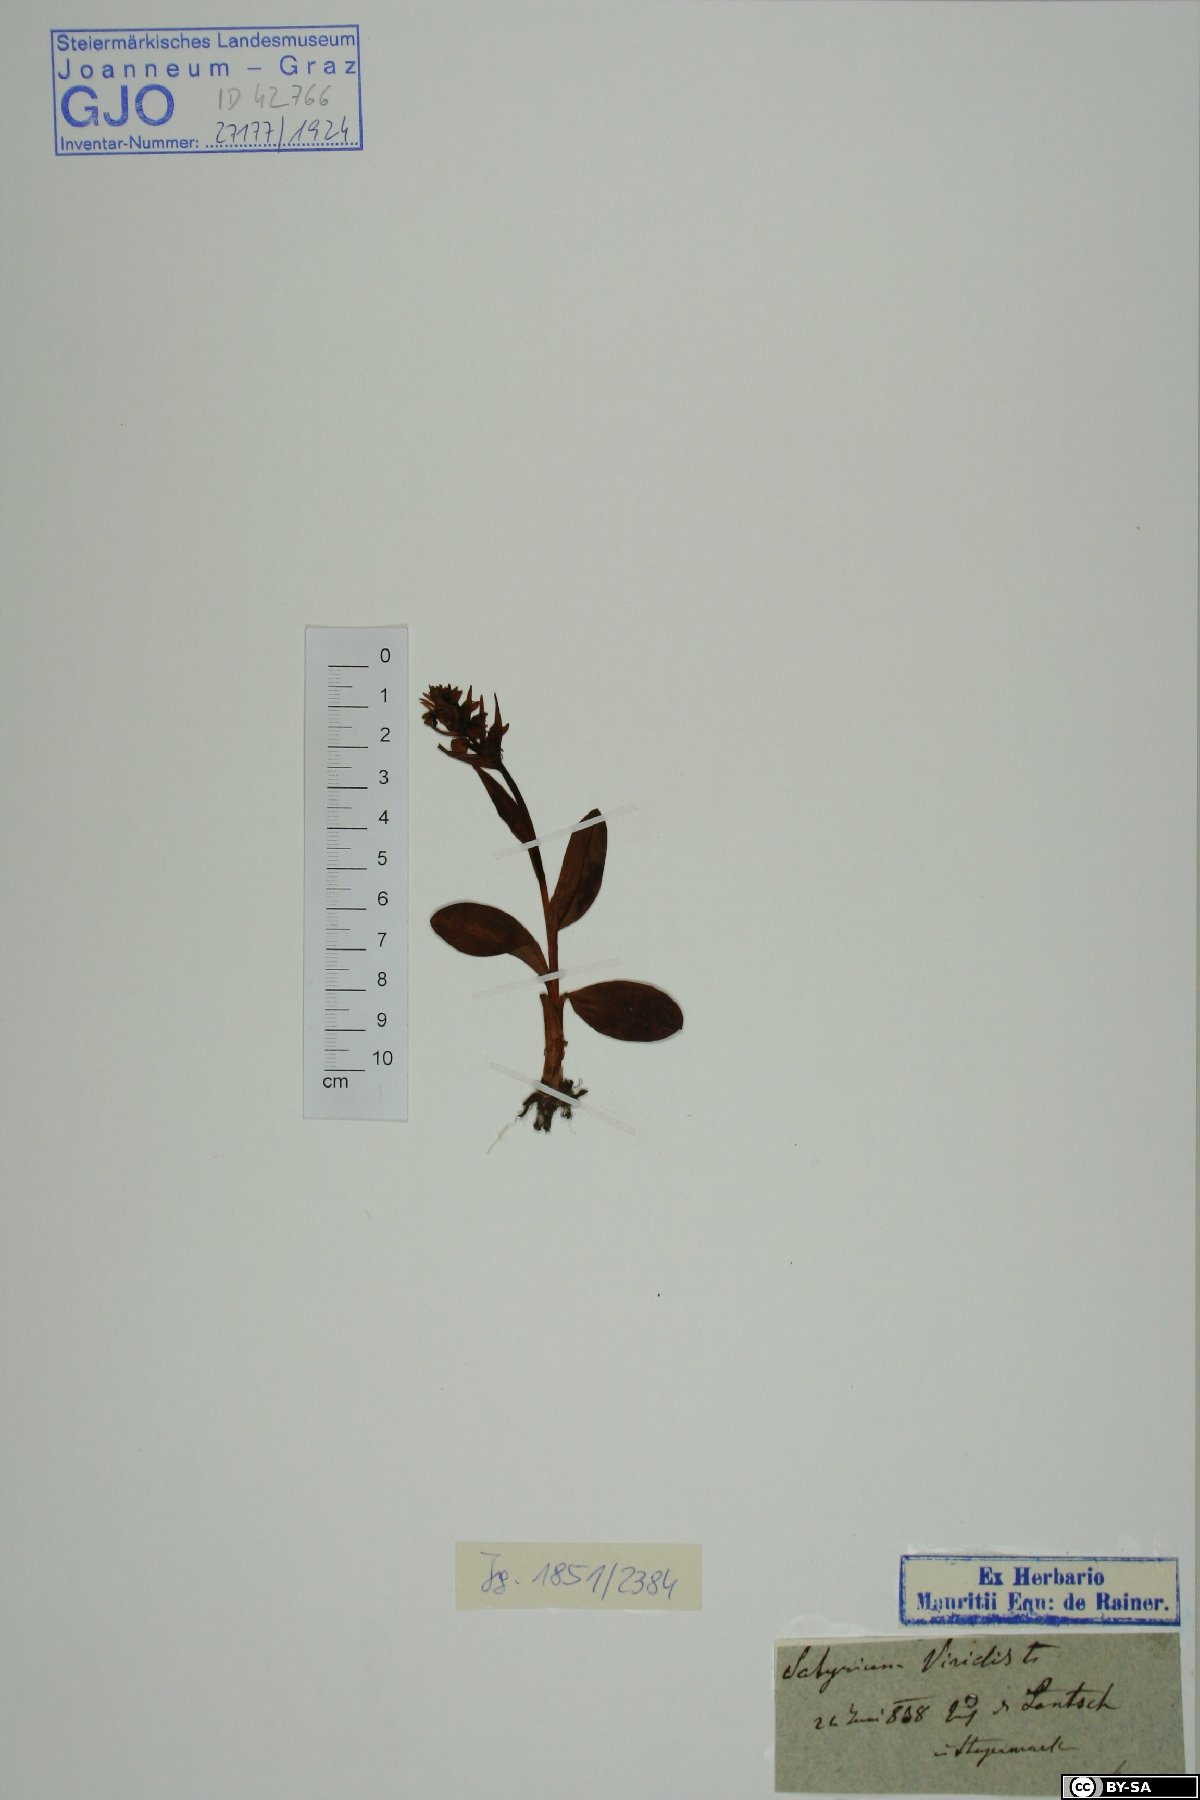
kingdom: Plantae
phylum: Tracheophyta
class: Liliopsida
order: Asparagales
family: Orchidaceae
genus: Dactylorhiza
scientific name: Dactylorhiza viridis
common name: Longbract frog orchid
